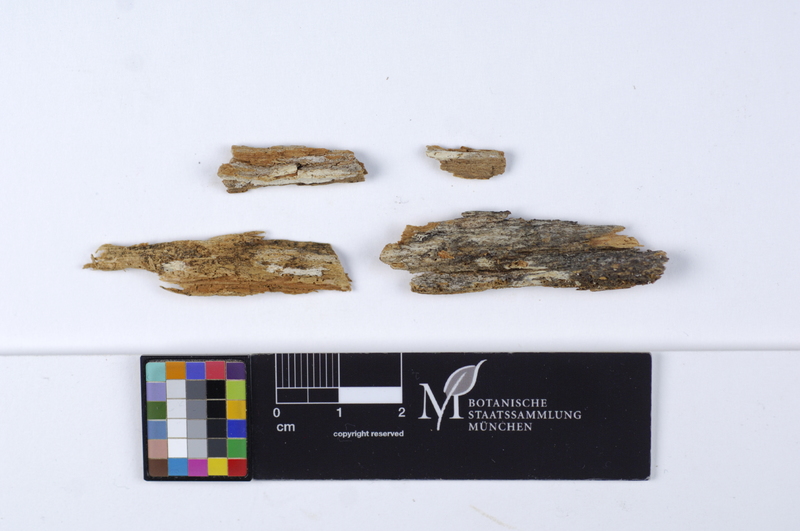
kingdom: Fungi
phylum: Basidiomycota
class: Agaricomycetes
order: Hymenochaetales
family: Rickenellaceae
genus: Globulicium
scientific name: Globulicium hiemale
